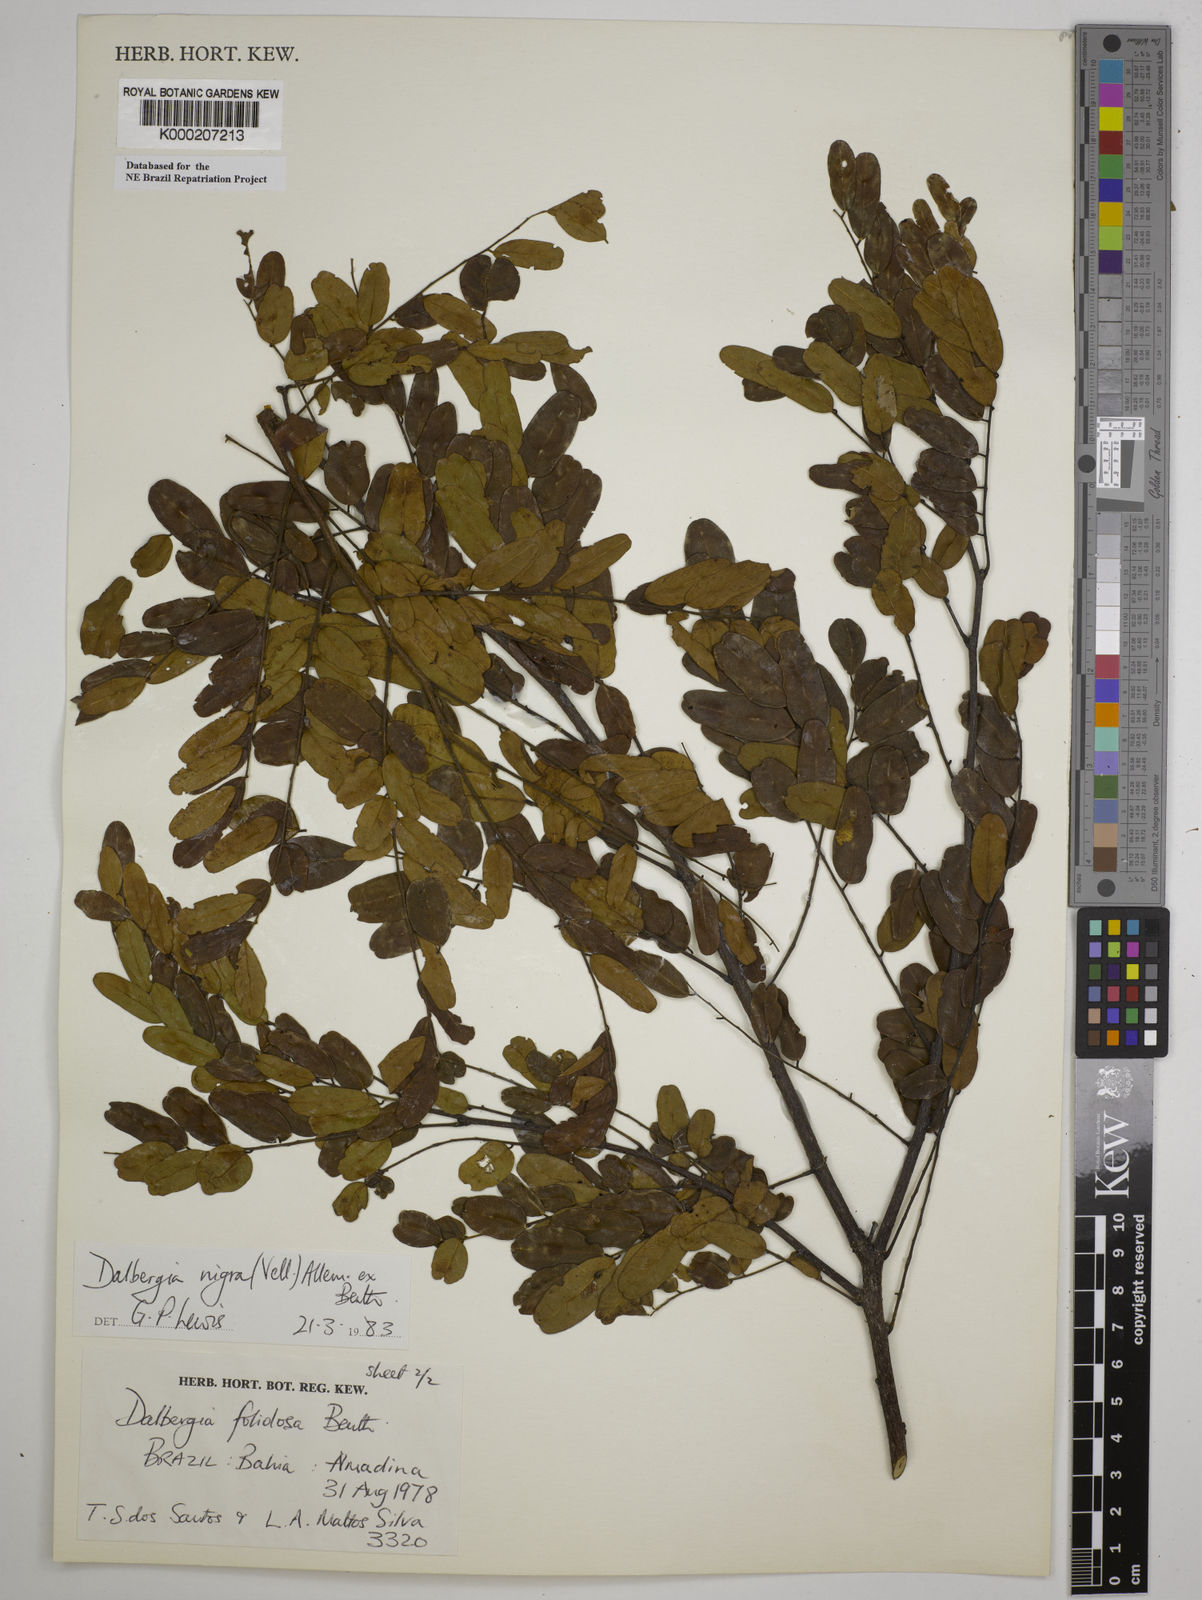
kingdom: Plantae
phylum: Tracheophyta
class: Magnoliopsida
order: Fabales
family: Fabaceae
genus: Dalbergia
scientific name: Dalbergia nigra
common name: Bahia rosewood
